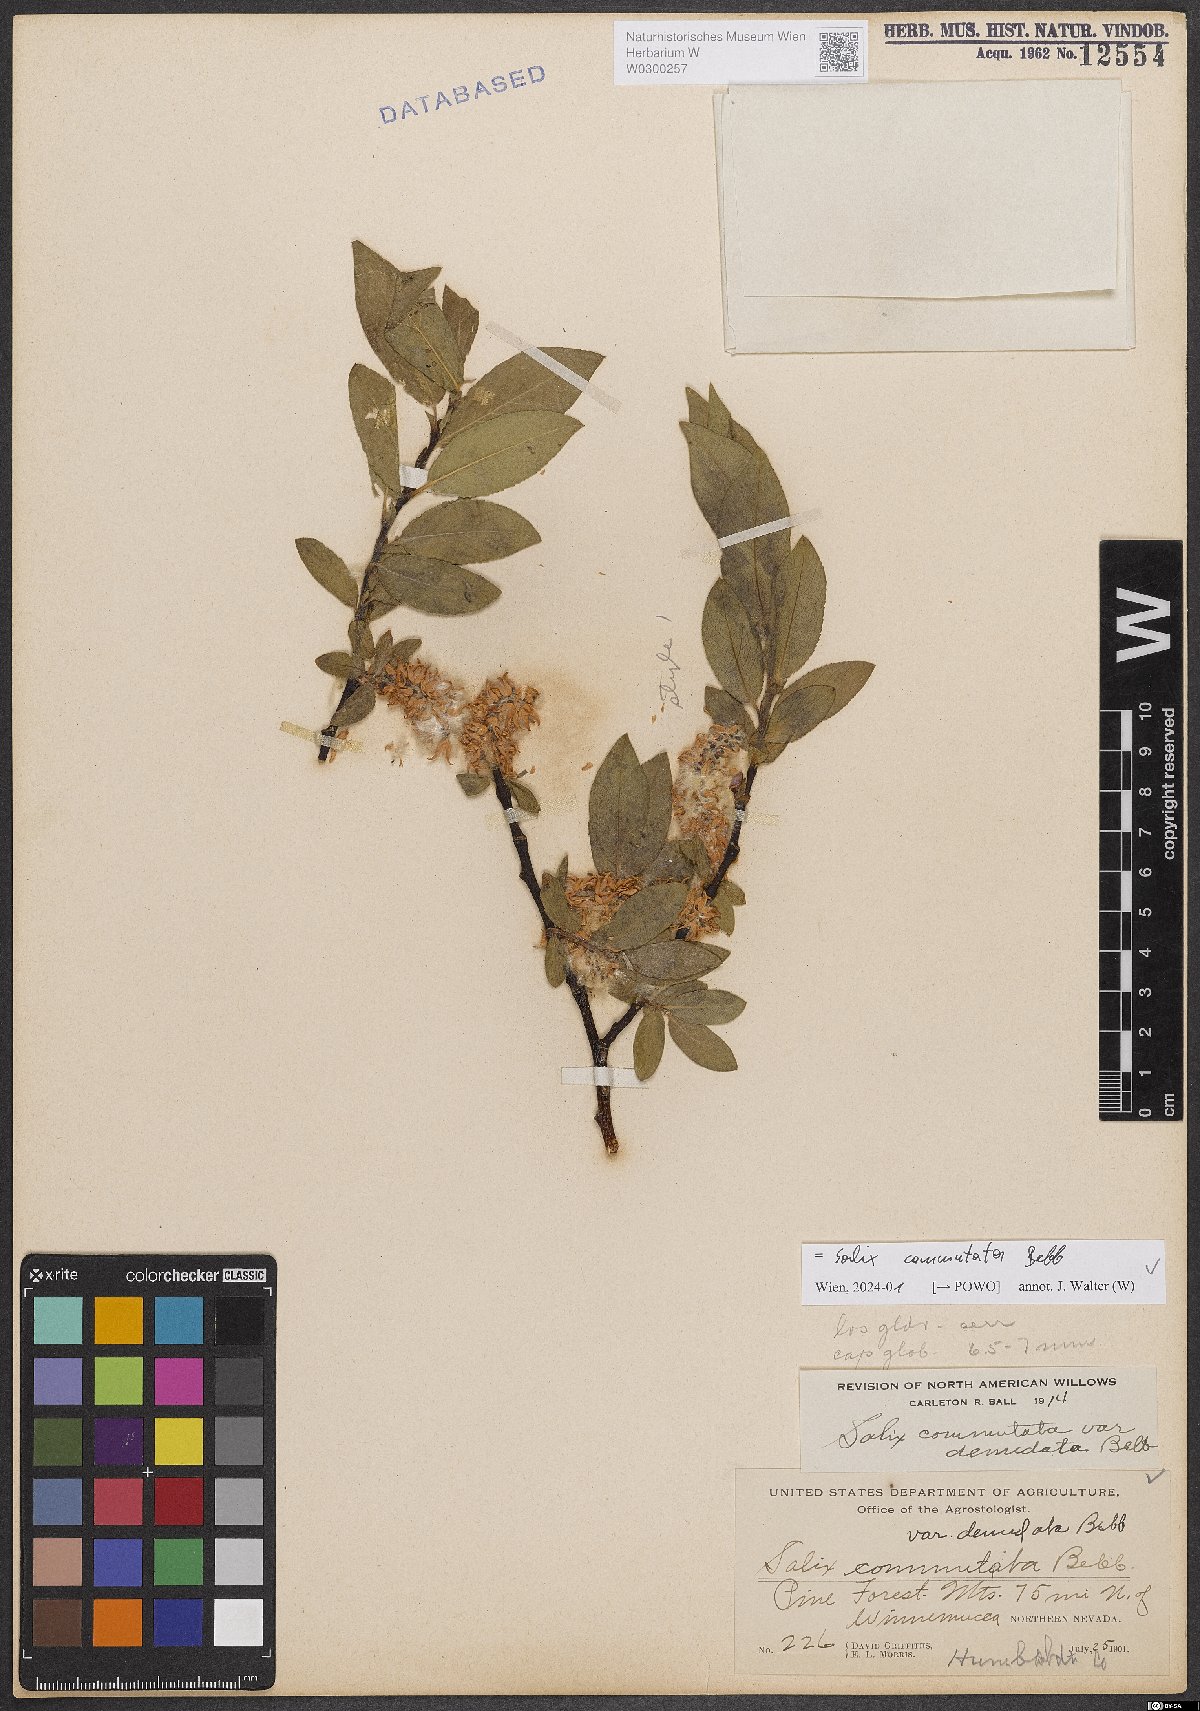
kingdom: Plantae
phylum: Tracheophyta
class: Magnoliopsida
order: Malpighiales
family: Salicaceae
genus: Salix
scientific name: Salix commutata
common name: Under-green willow
